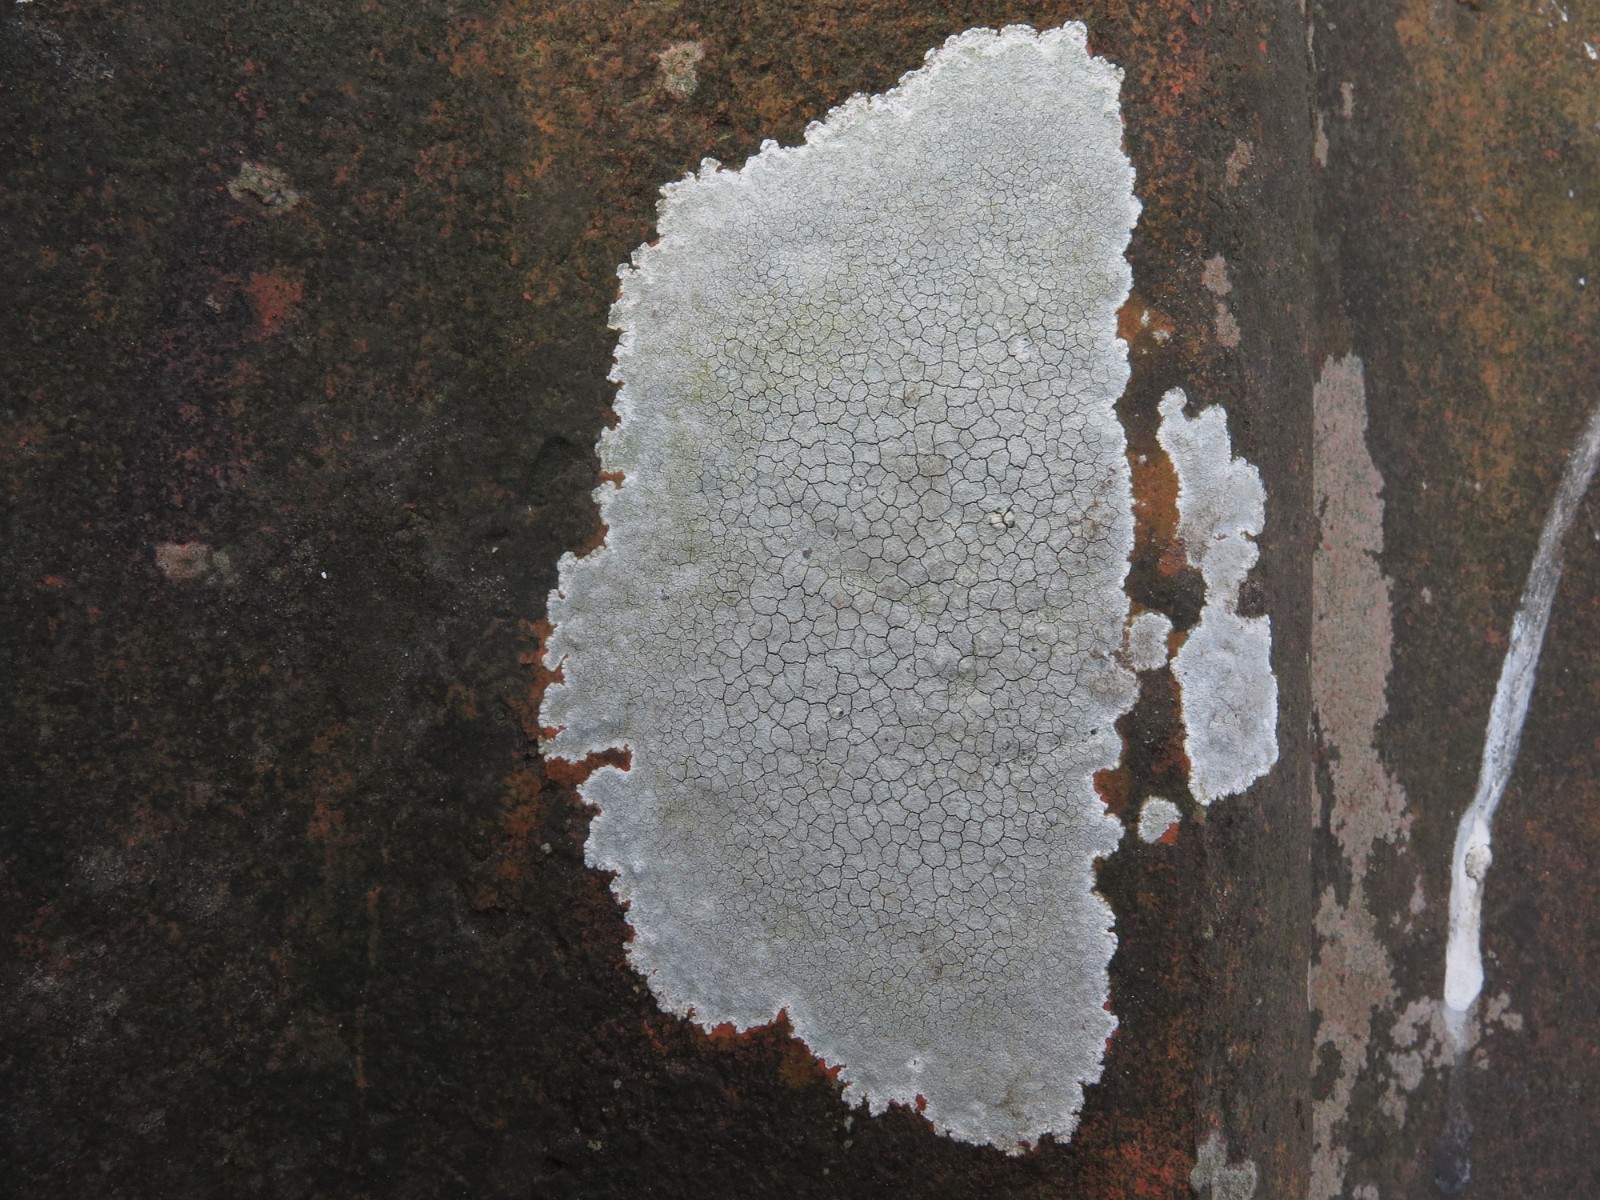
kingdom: Fungi
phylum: Ascomycota
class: Lecanoromycetes
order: Lecanorales
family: Lecanoraceae
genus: Glaucomaria
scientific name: Glaucomaria rupicola
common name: stengærde-kantskivelav
